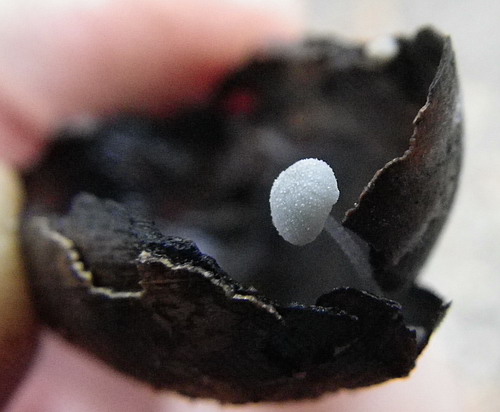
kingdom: Fungi
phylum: Basidiomycota
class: Agaricomycetes
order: Agaricales
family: Mycenaceae
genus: Mycena
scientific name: Mycena tenerrima
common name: pudret huesvamp
